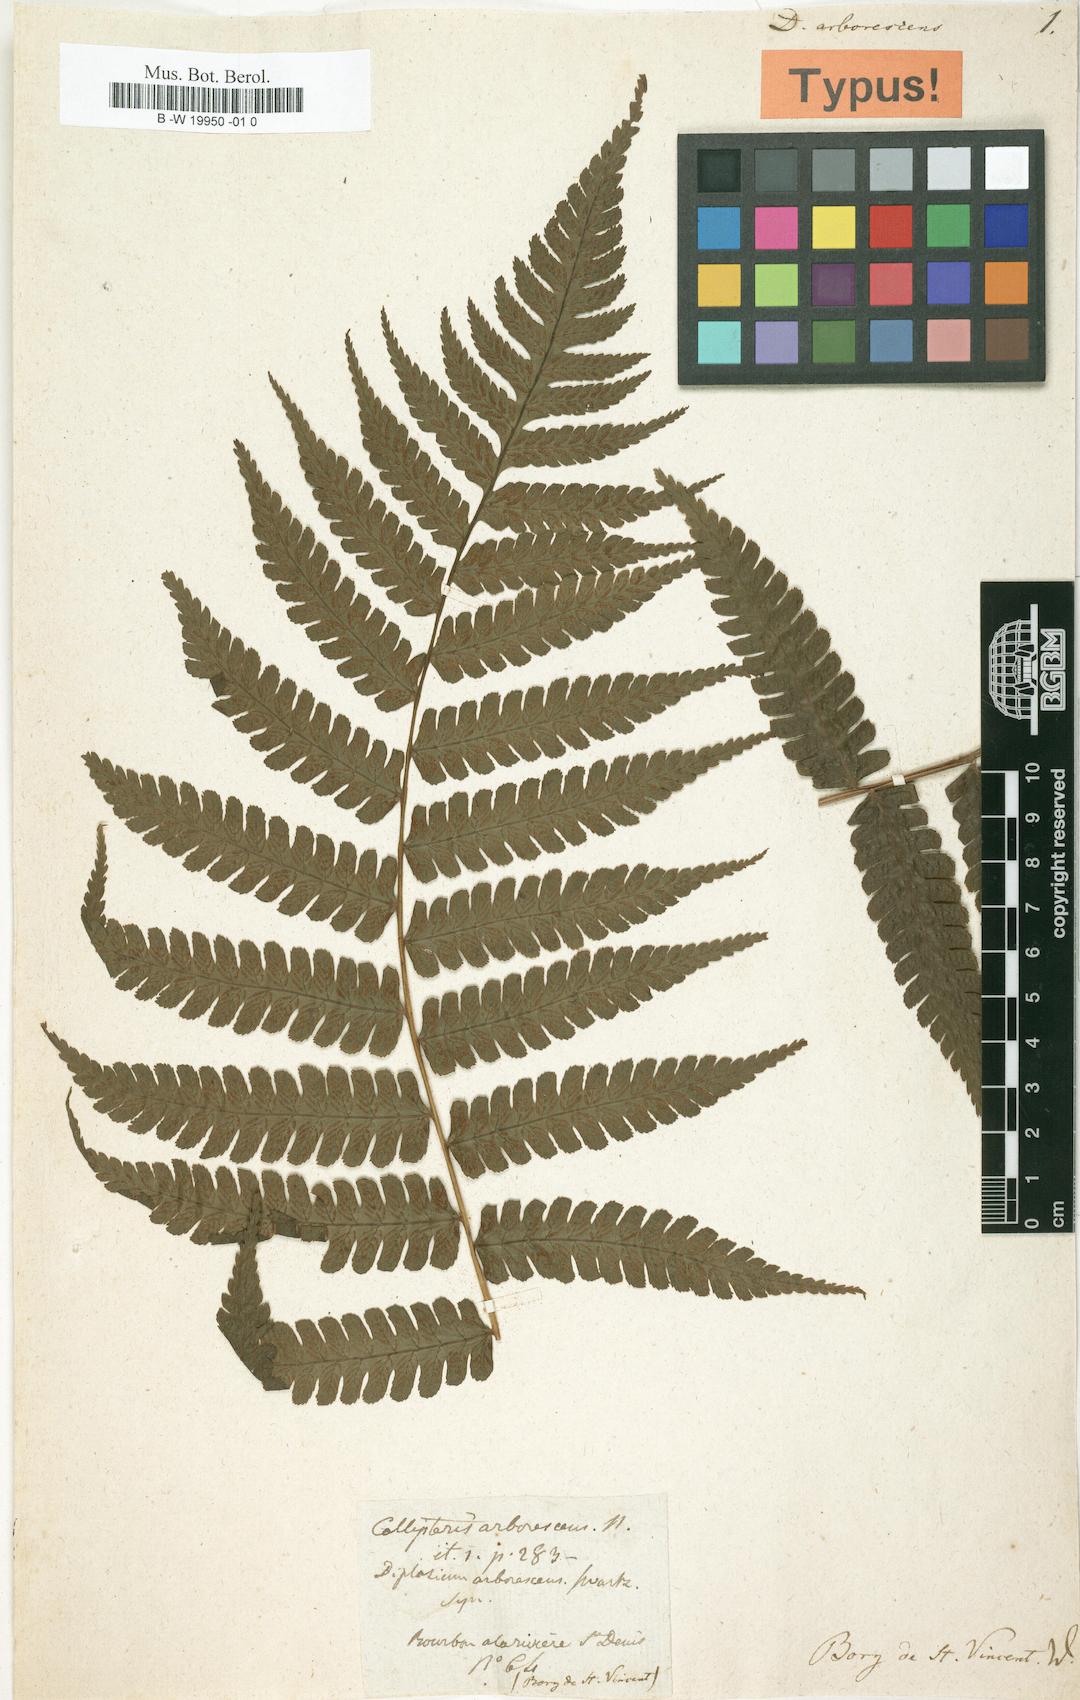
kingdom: Plantae
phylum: Tracheophyta
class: Polypodiopsida
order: Polypodiales
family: Athyriaceae
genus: Diplazium
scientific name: Diplazium arborescens
